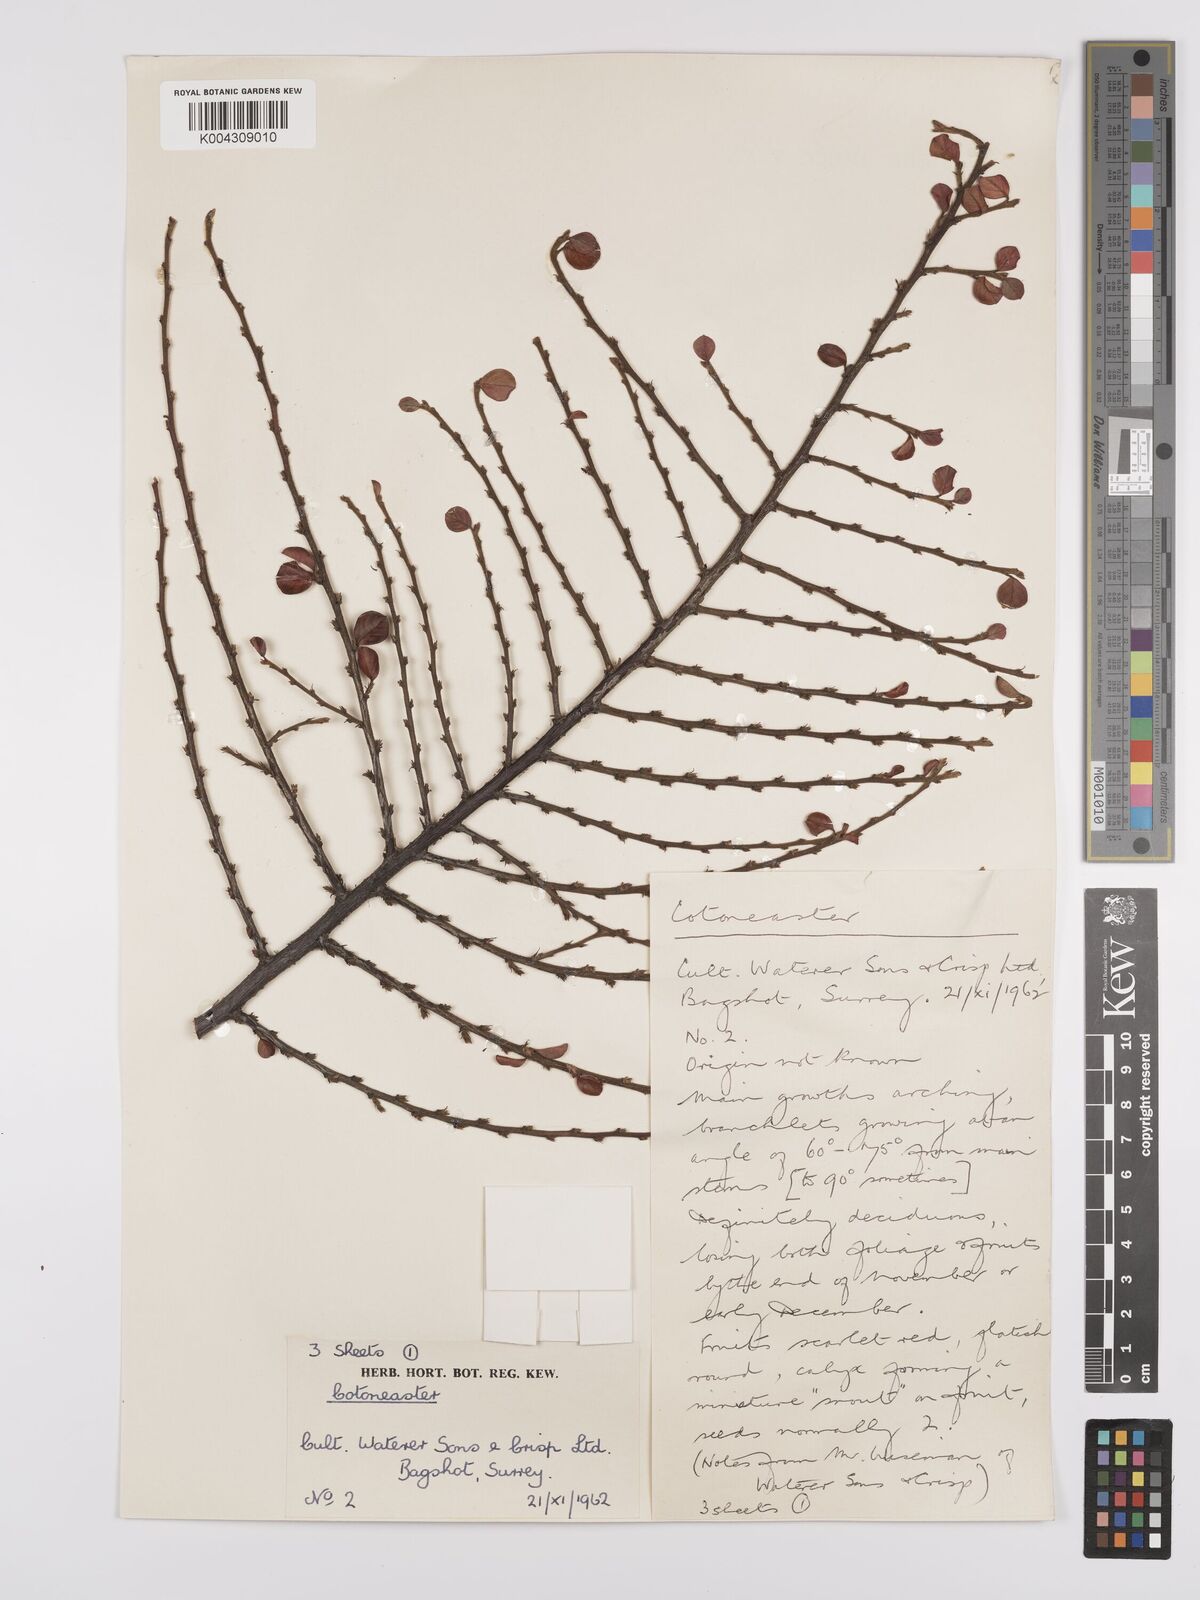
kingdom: Plantae
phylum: Tracheophyta
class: Magnoliopsida
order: Rosales
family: Rosaceae
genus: Cotoneaster
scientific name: Cotoneaster
